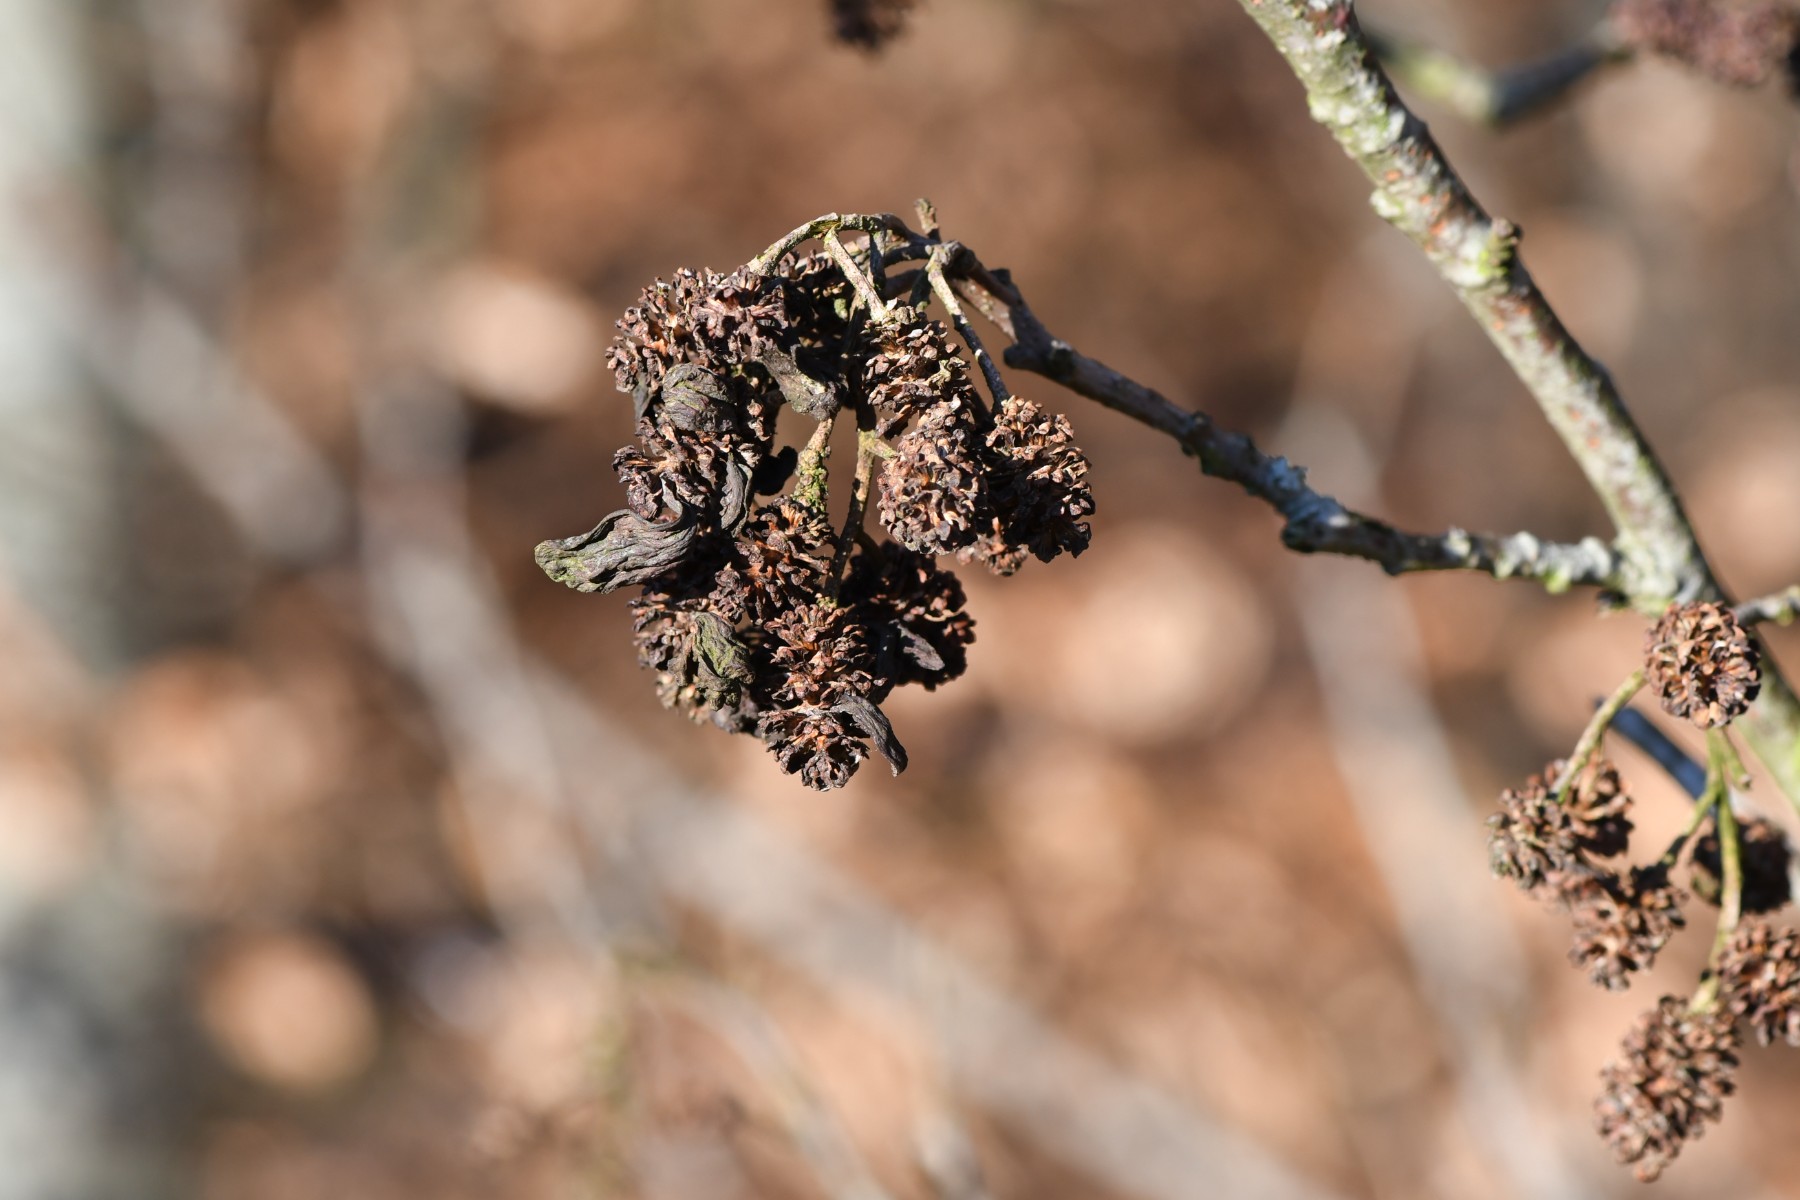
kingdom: Fungi
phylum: Ascomycota
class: Taphrinomycetes
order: Taphrinales
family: Taphrinaceae
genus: Taphrina
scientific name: Taphrina alni
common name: Alder tongue
